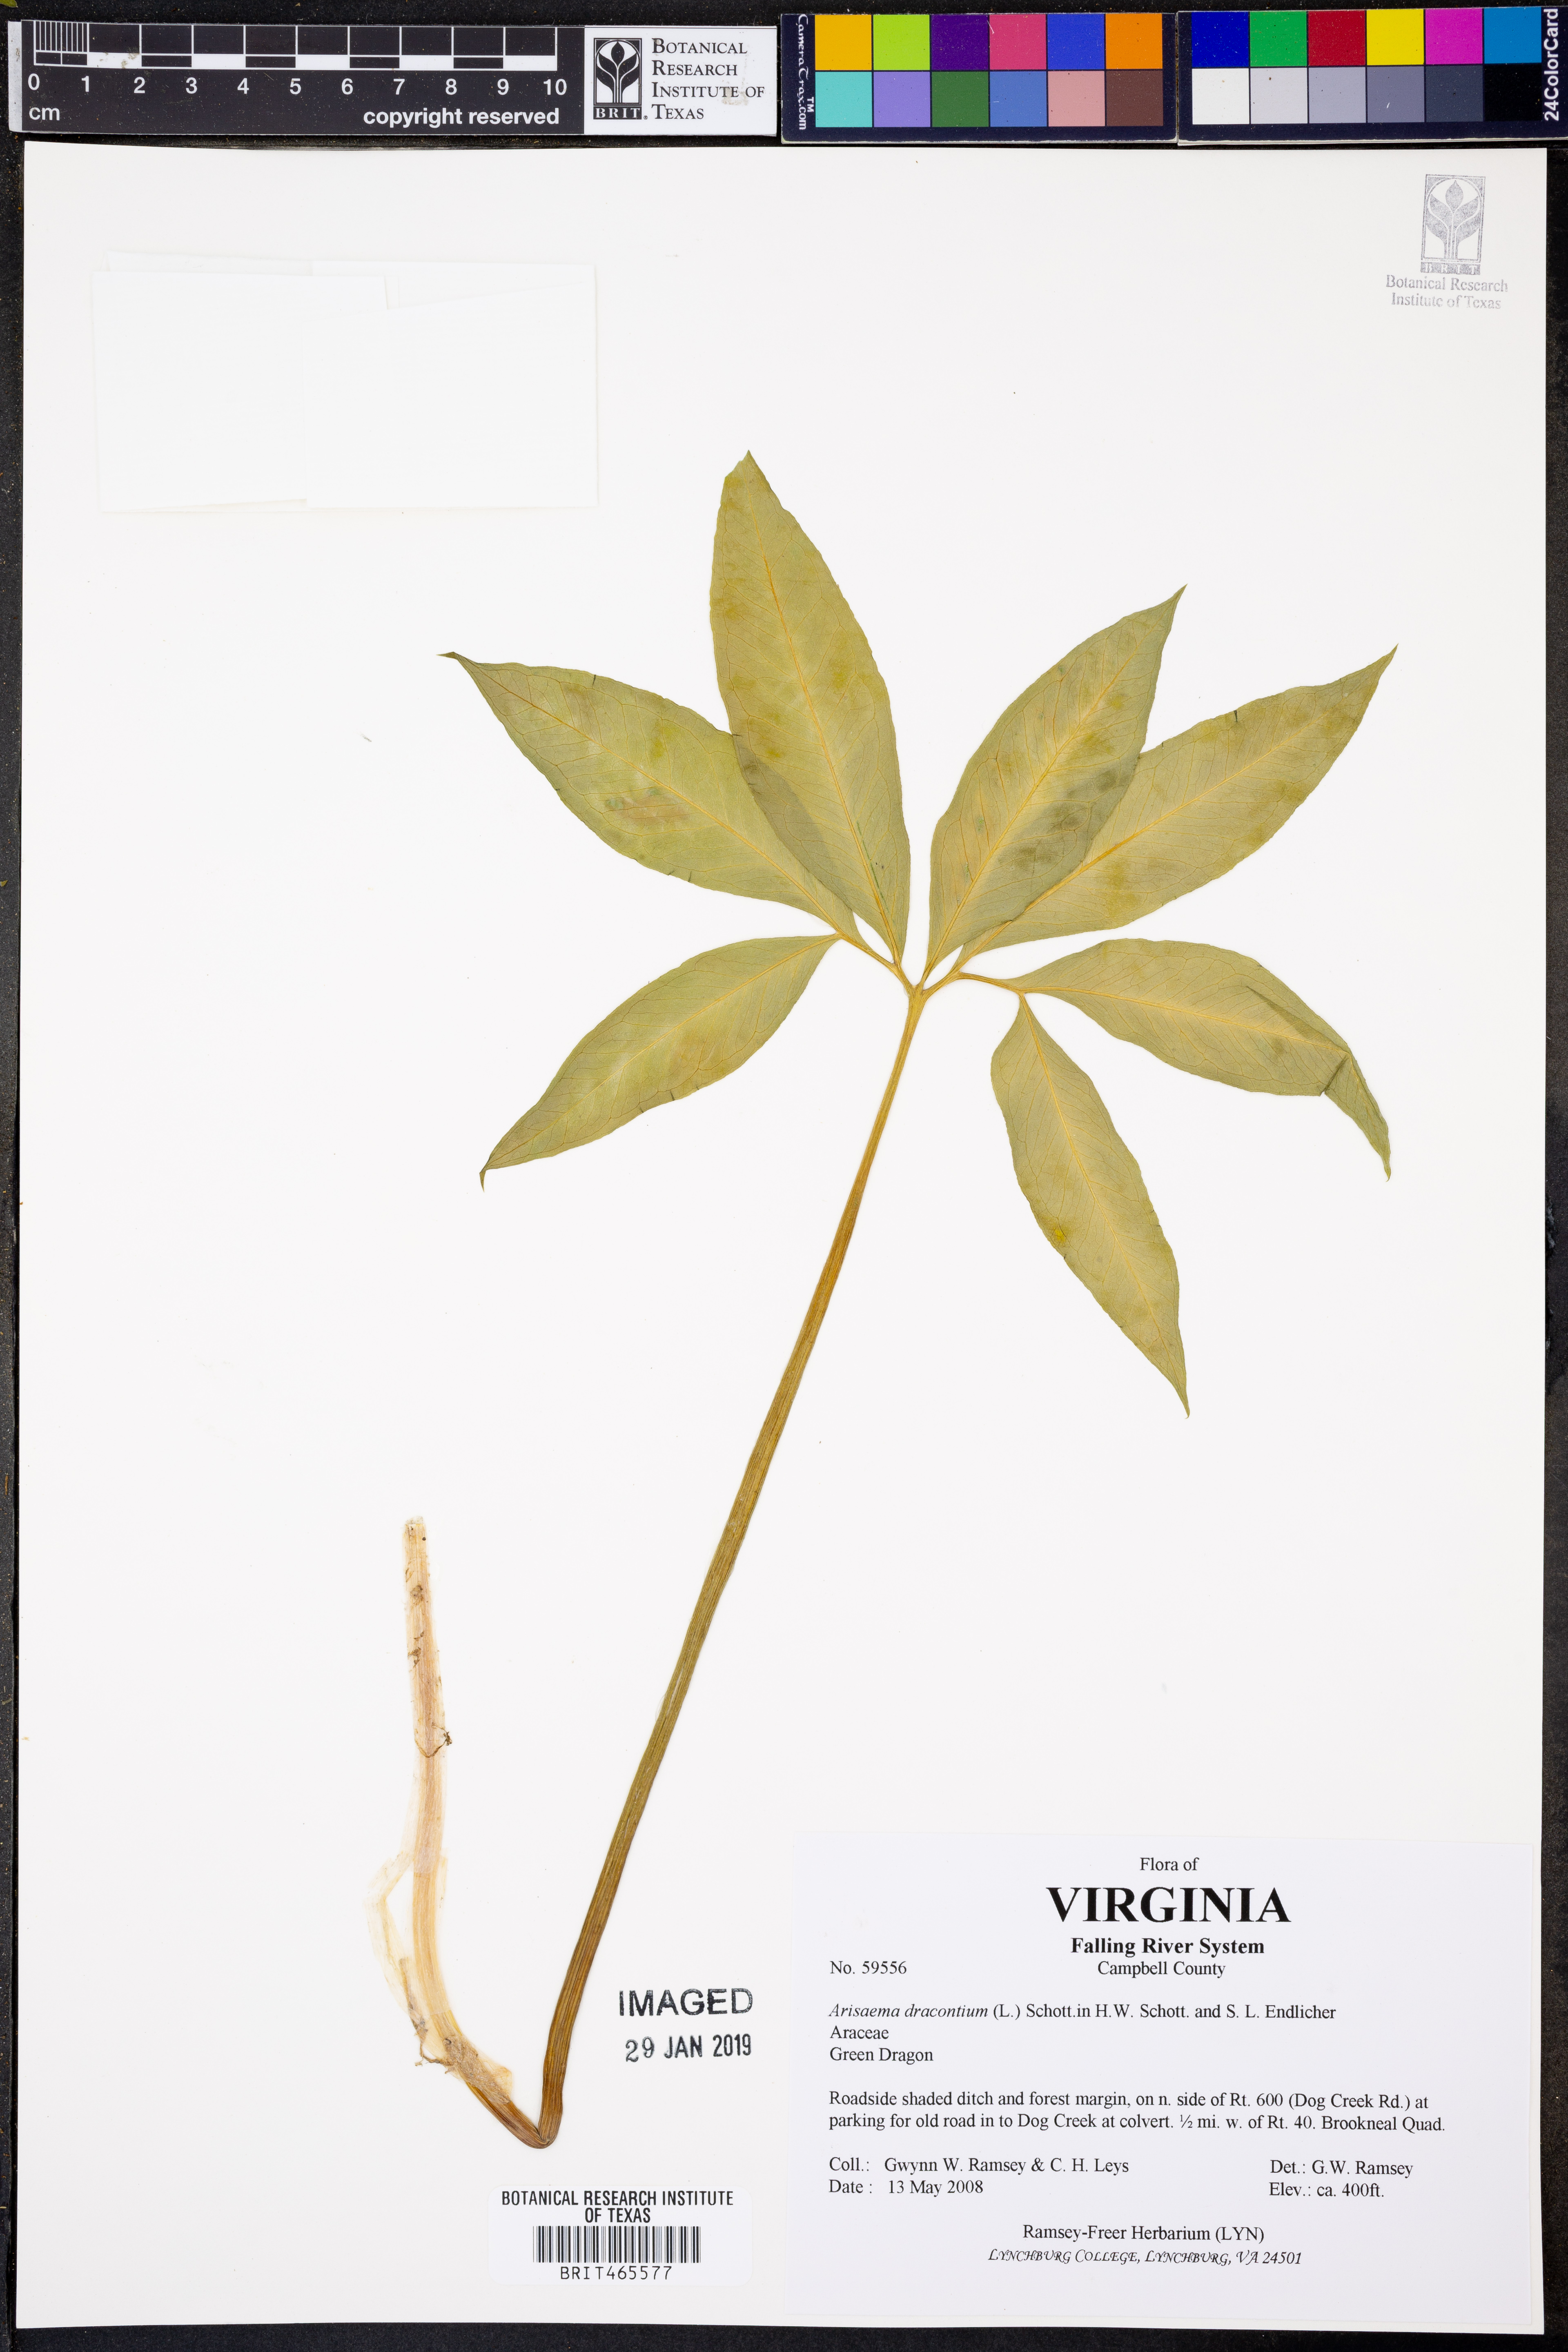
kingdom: Plantae
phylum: Tracheophyta
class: Liliopsida
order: Alismatales
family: Araceae
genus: Arisaema
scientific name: Arisaema dracontium
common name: Dragon-arum
